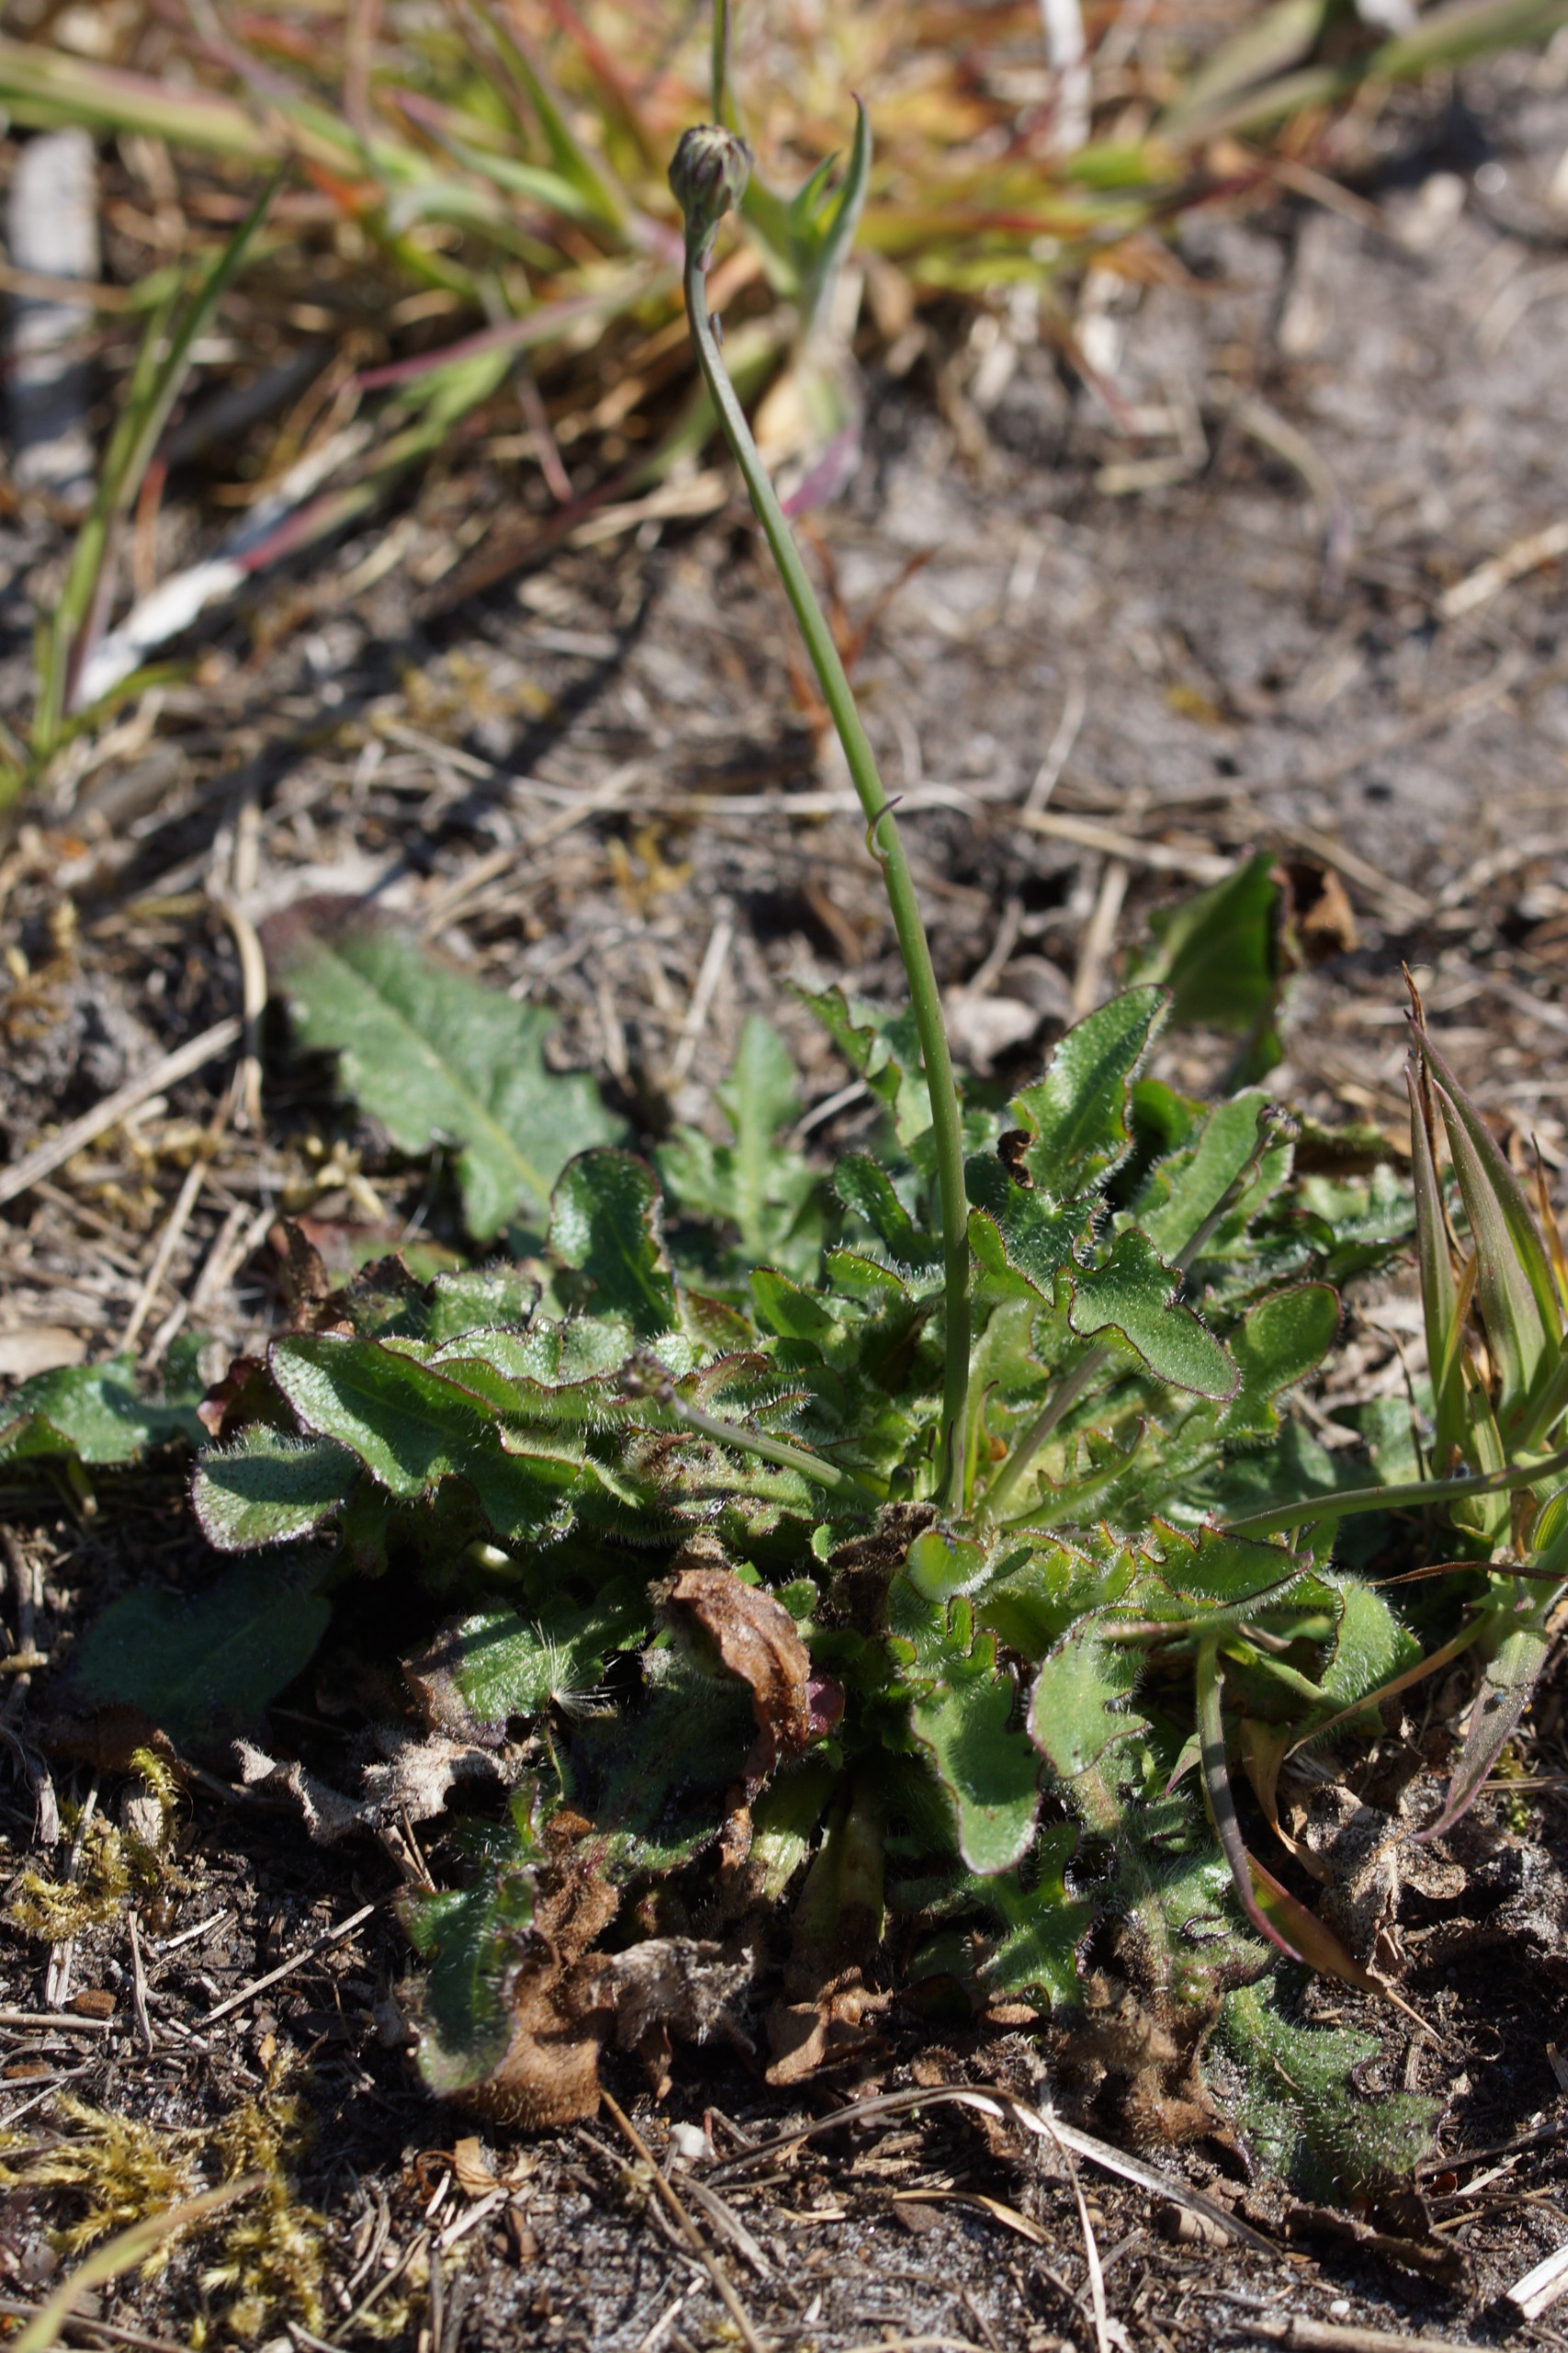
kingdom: Plantae
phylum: Tracheophyta
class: Magnoliopsida
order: Asterales
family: Asteraceae
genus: Hypochaeris
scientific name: Hypochaeris radicata
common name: Almindelig kongepen
